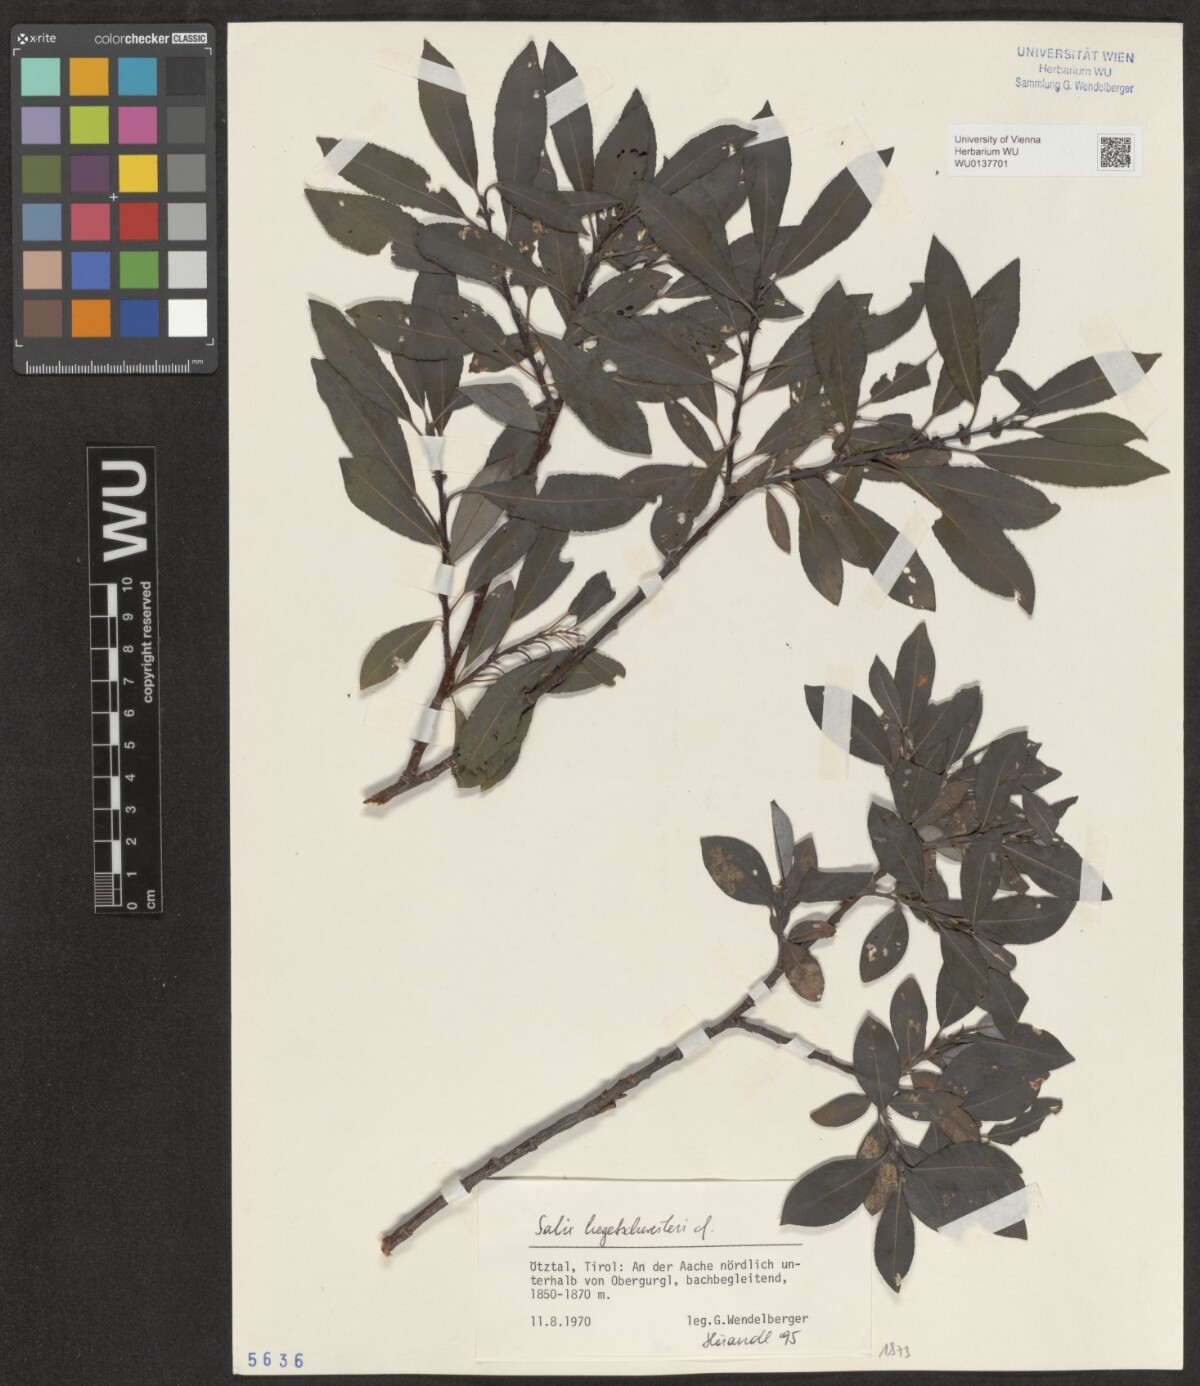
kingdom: Plantae
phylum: Tracheophyta
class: Magnoliopsida
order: Malpighiales
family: Salicaceae
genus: Salix
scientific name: Salix hegetschweileri
